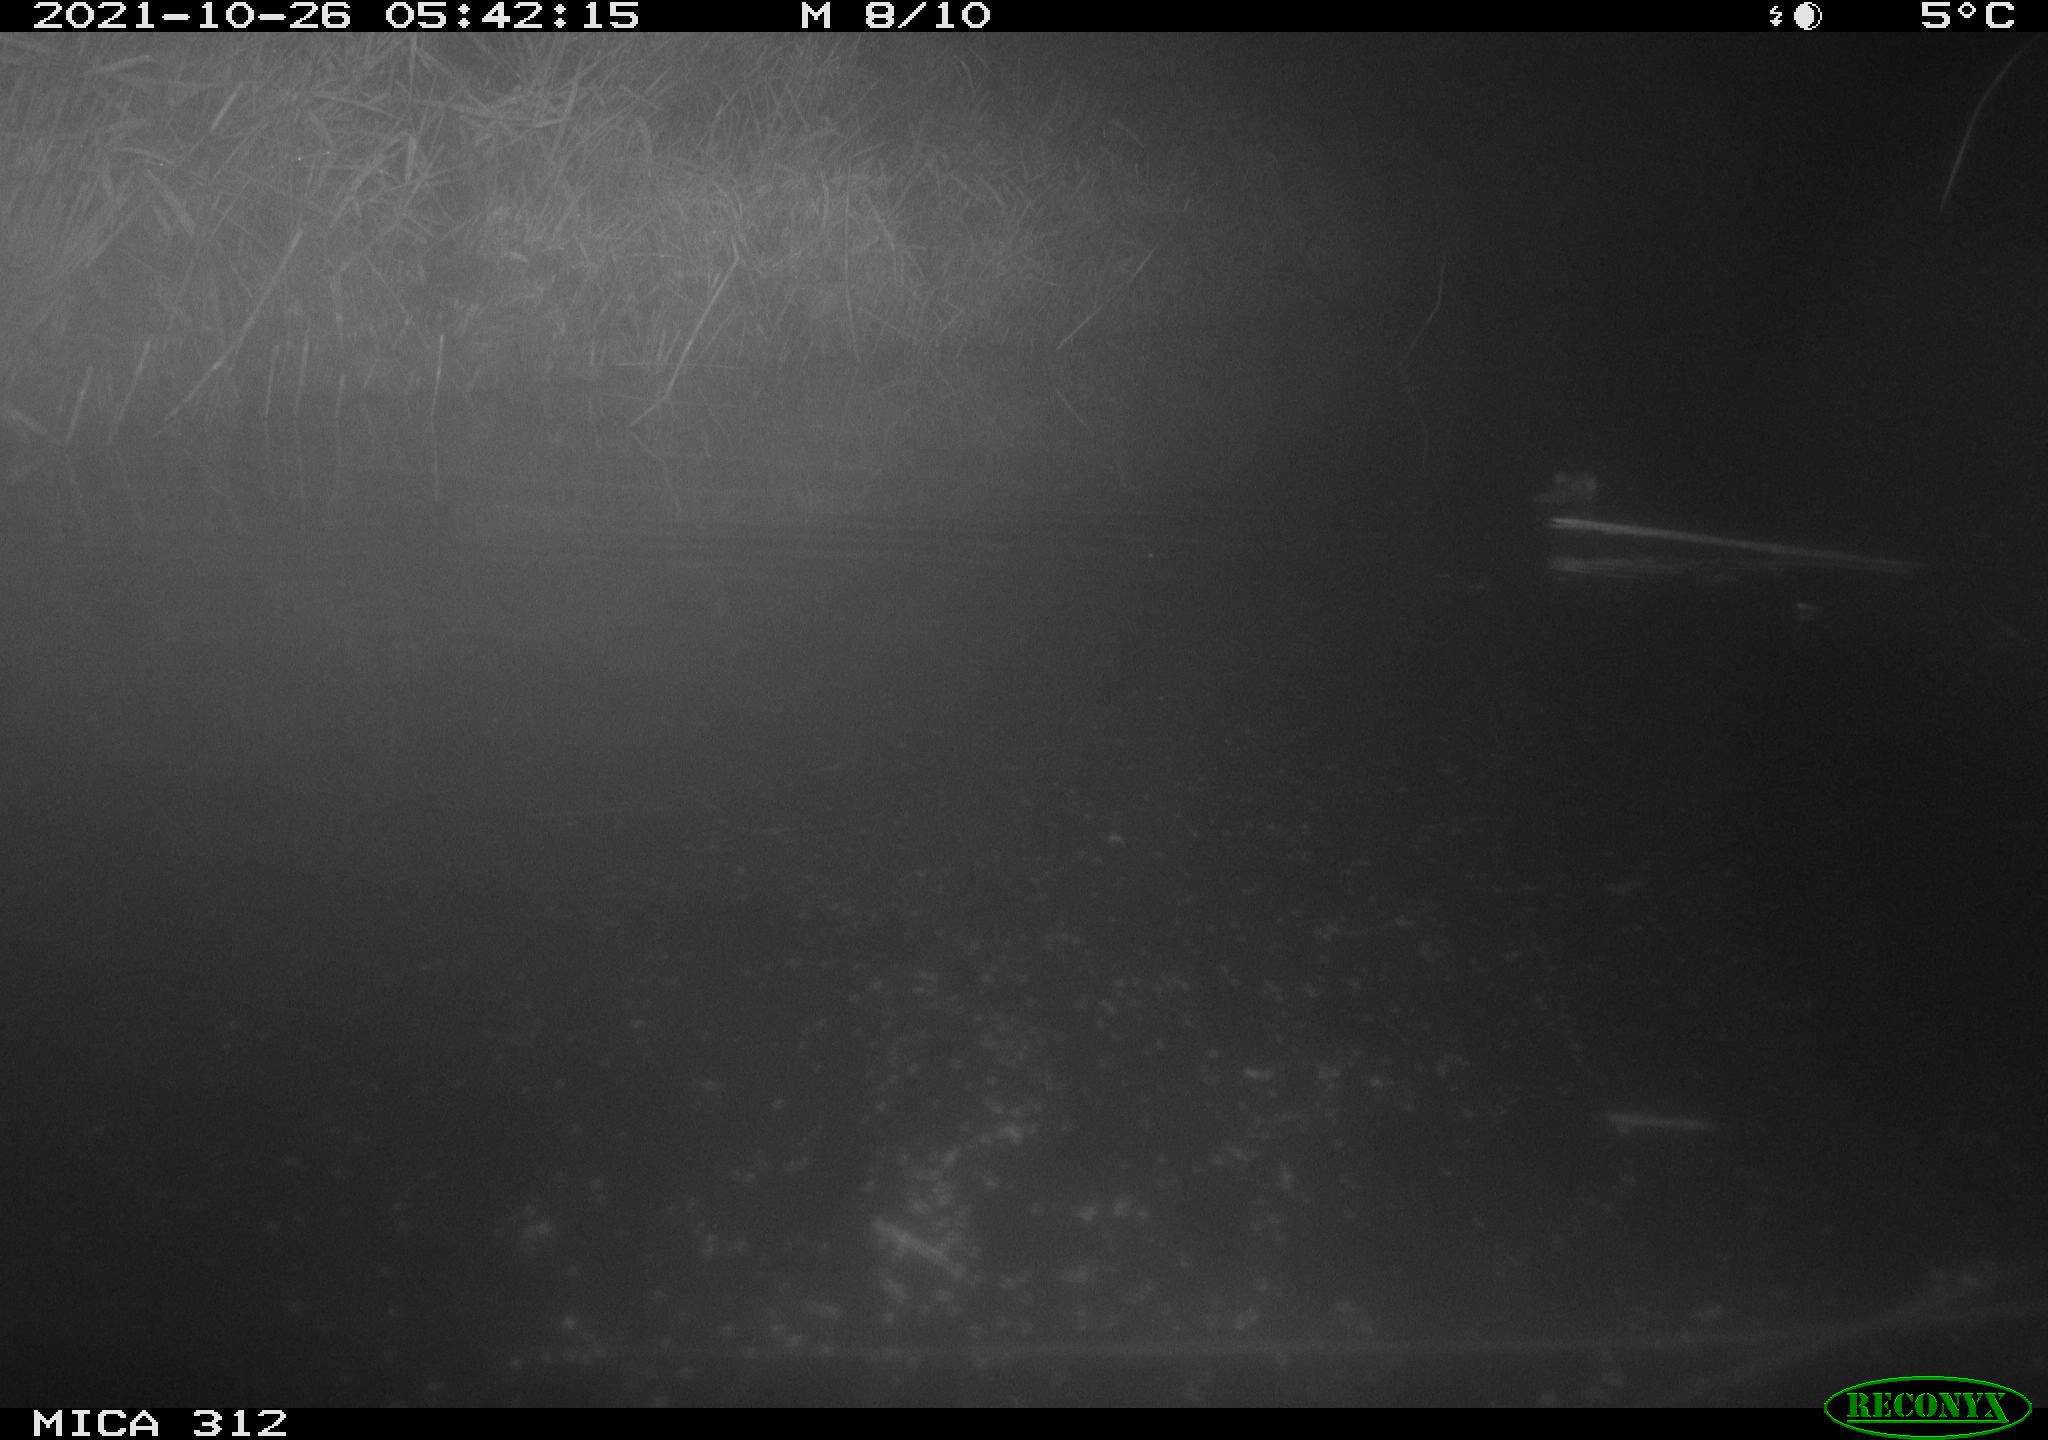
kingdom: Animalia
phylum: Chordata
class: Mammalia
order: Rodentia
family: Muridae
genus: Rattus
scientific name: Rattus norvegicus
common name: Brown rat
